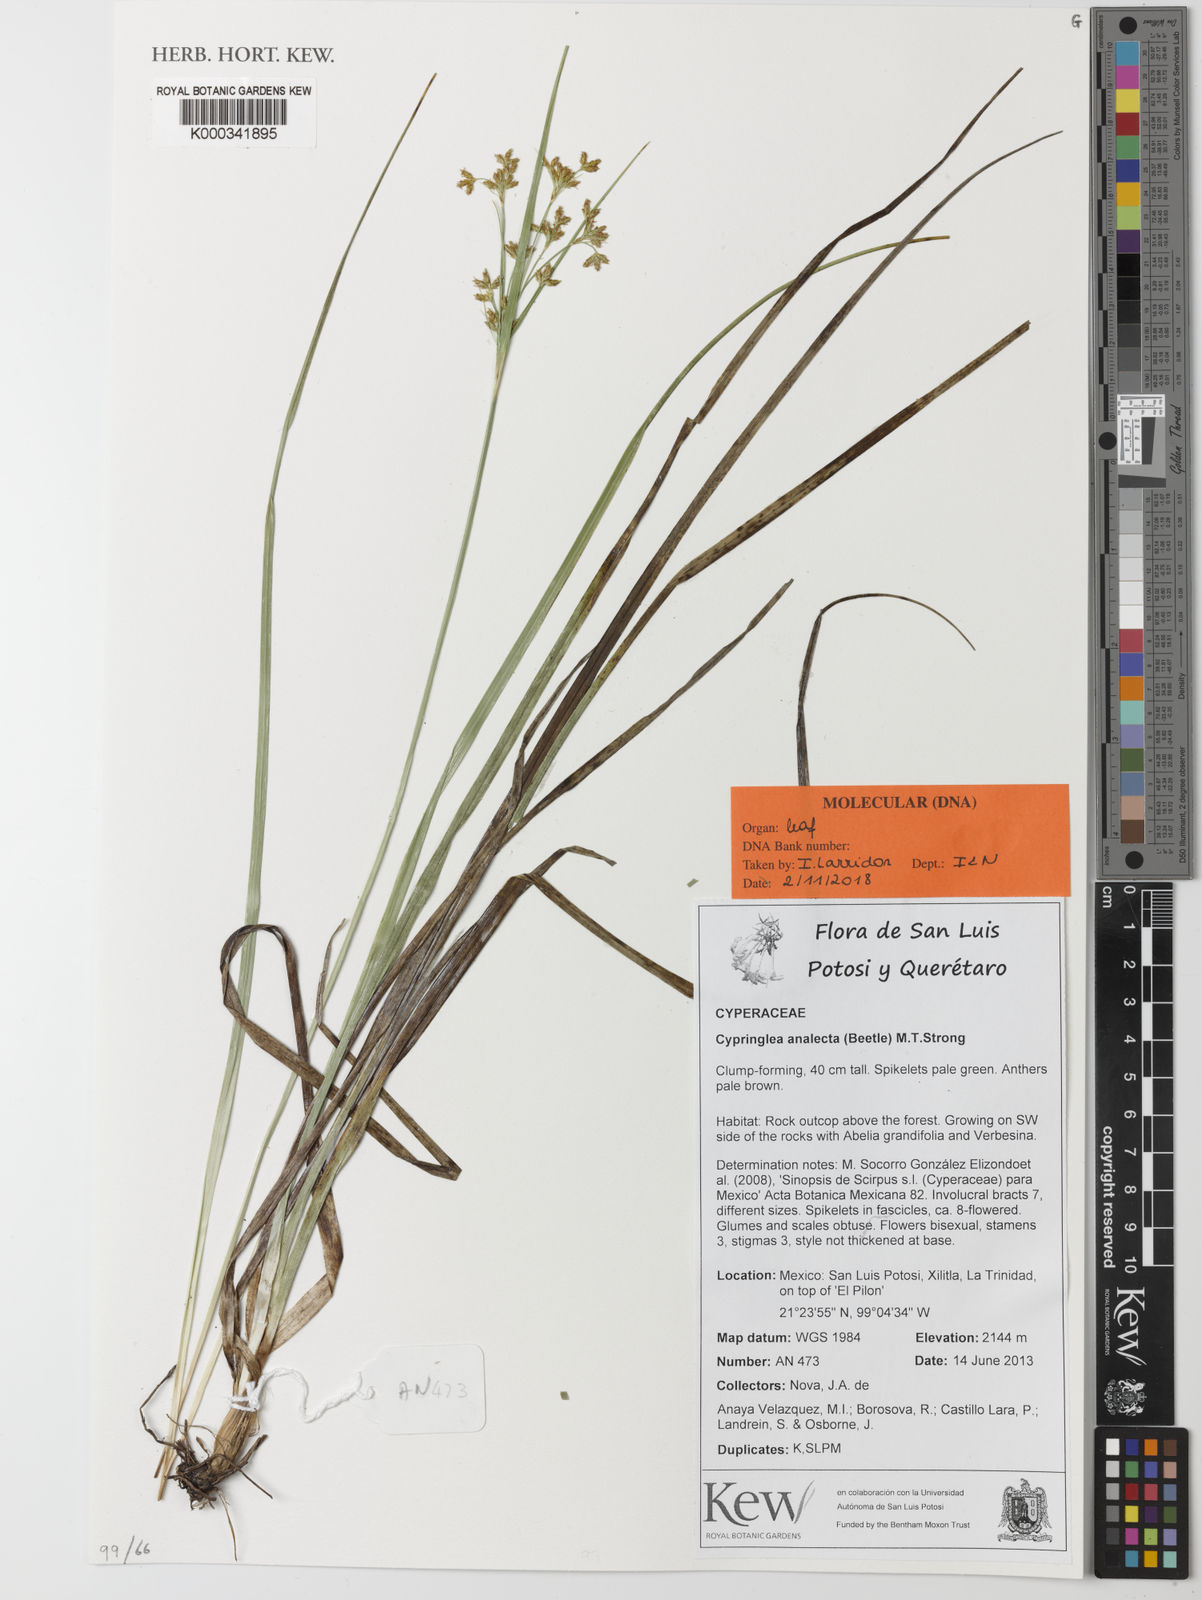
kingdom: Plantae
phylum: Tracheophyta
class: Liliopsida
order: Poales
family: Cyperaceae
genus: Trichophorum
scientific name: Trichophorum analecta
